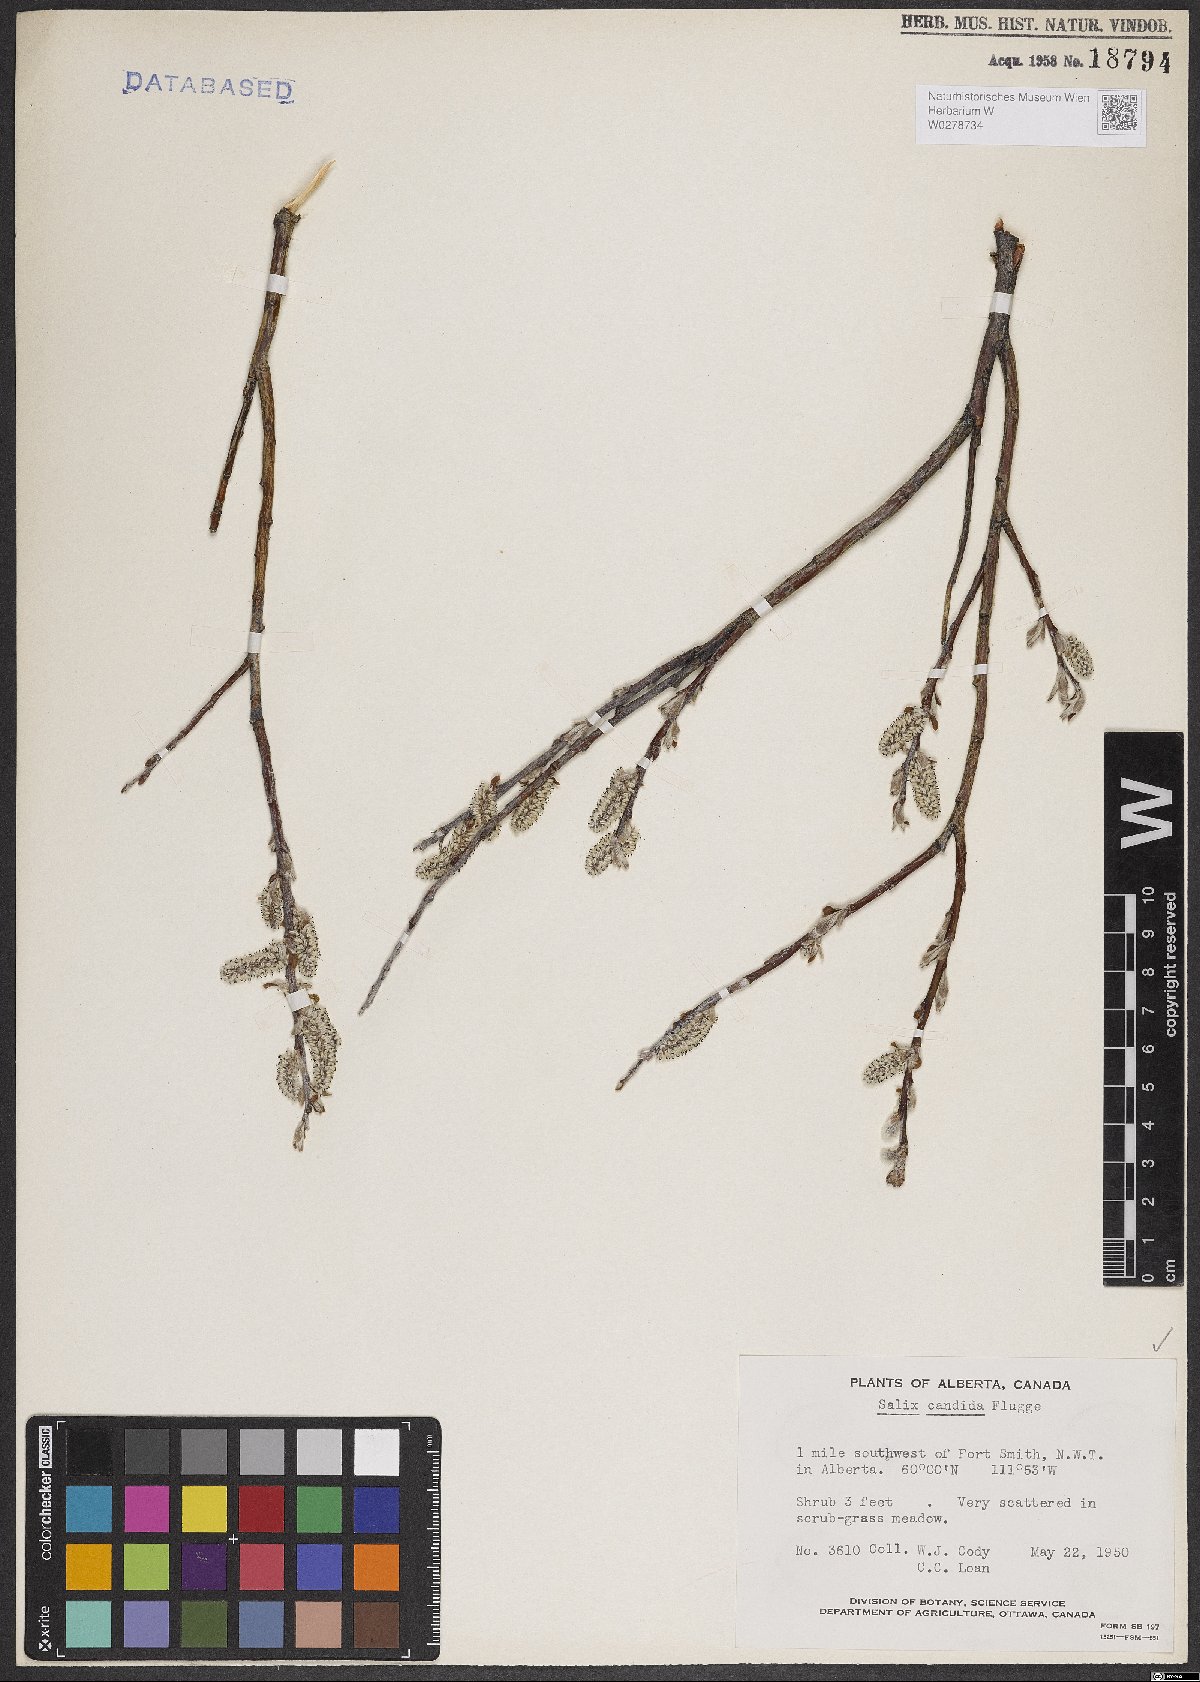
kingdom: Plantae
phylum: Tracheophyta
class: Magnoliopsida
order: Malpighiales
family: Salicaceae
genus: Salix
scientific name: Salix candida
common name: Hoary willow
